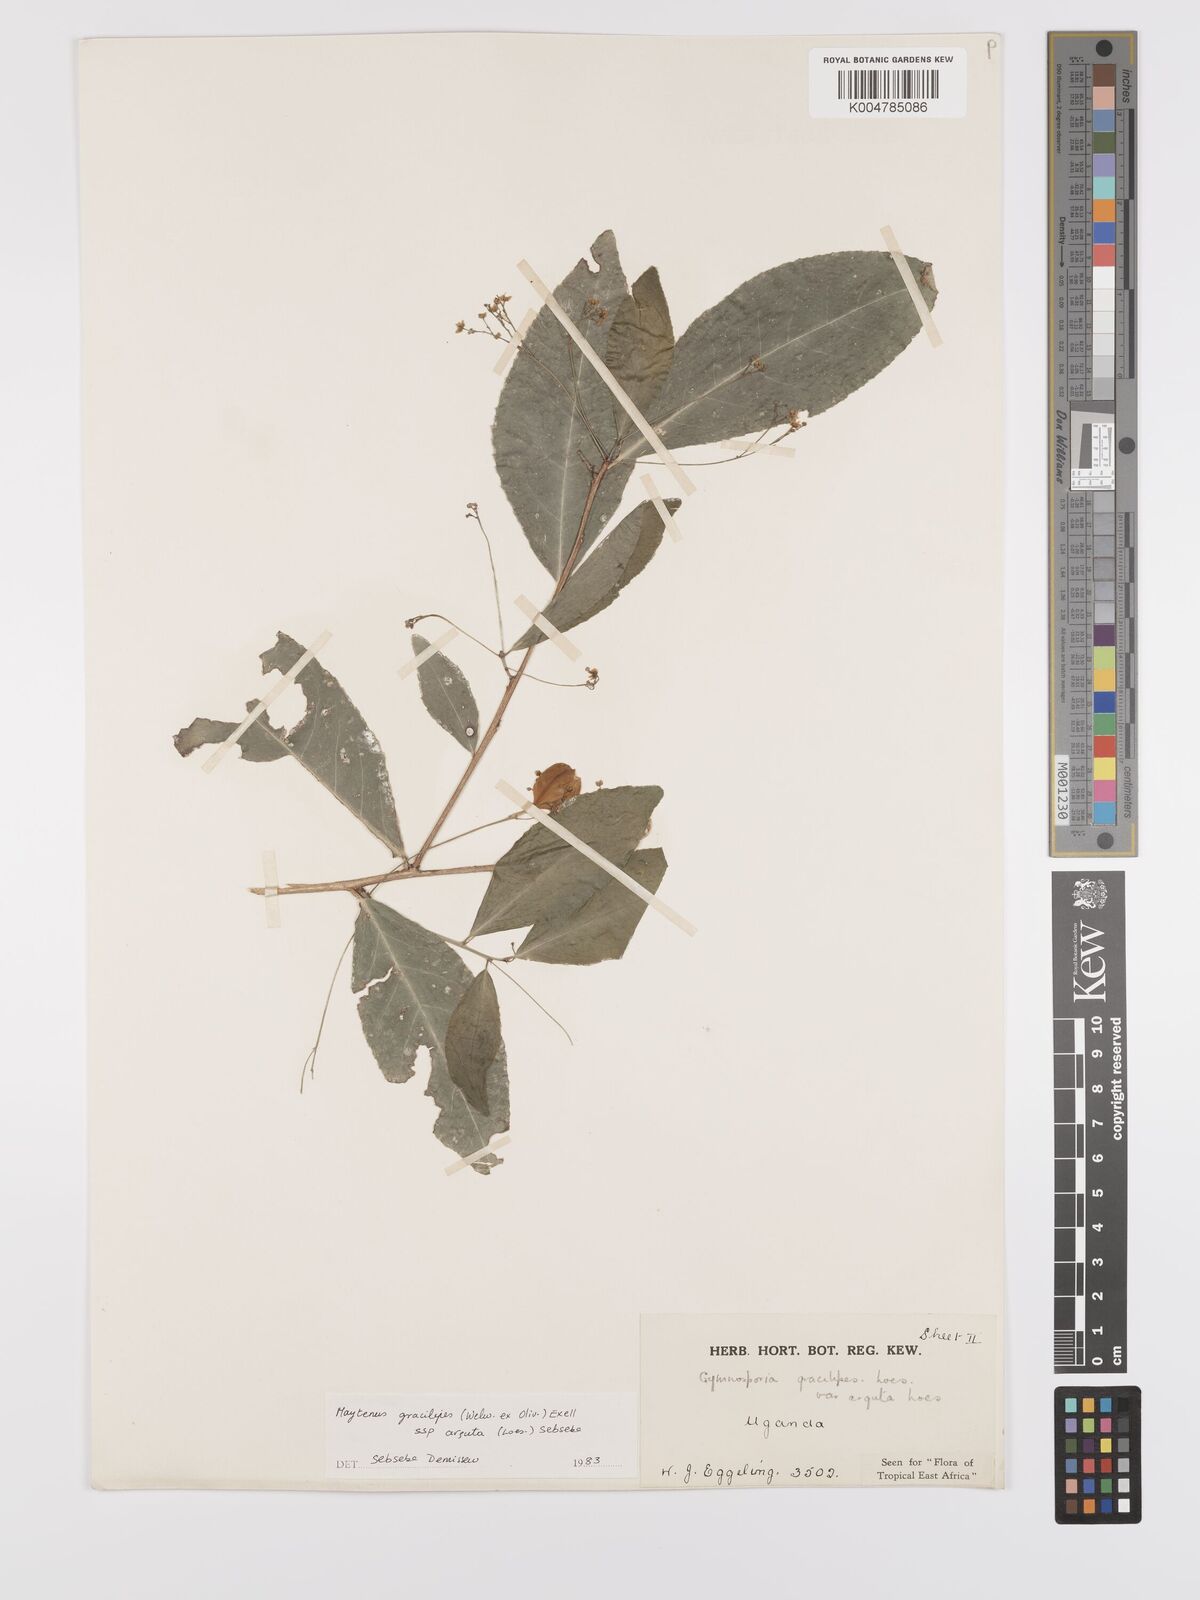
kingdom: Plantae
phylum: Tracheophyta
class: Magnoliopsida
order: Celastrales
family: Celastraceae
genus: Gymnosporia
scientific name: Gymnosporia gracilipes
